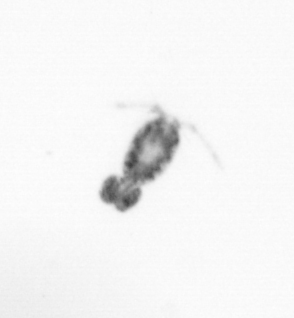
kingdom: Animalia
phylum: Arthropoda
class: Copepoda
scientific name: Copepoda
